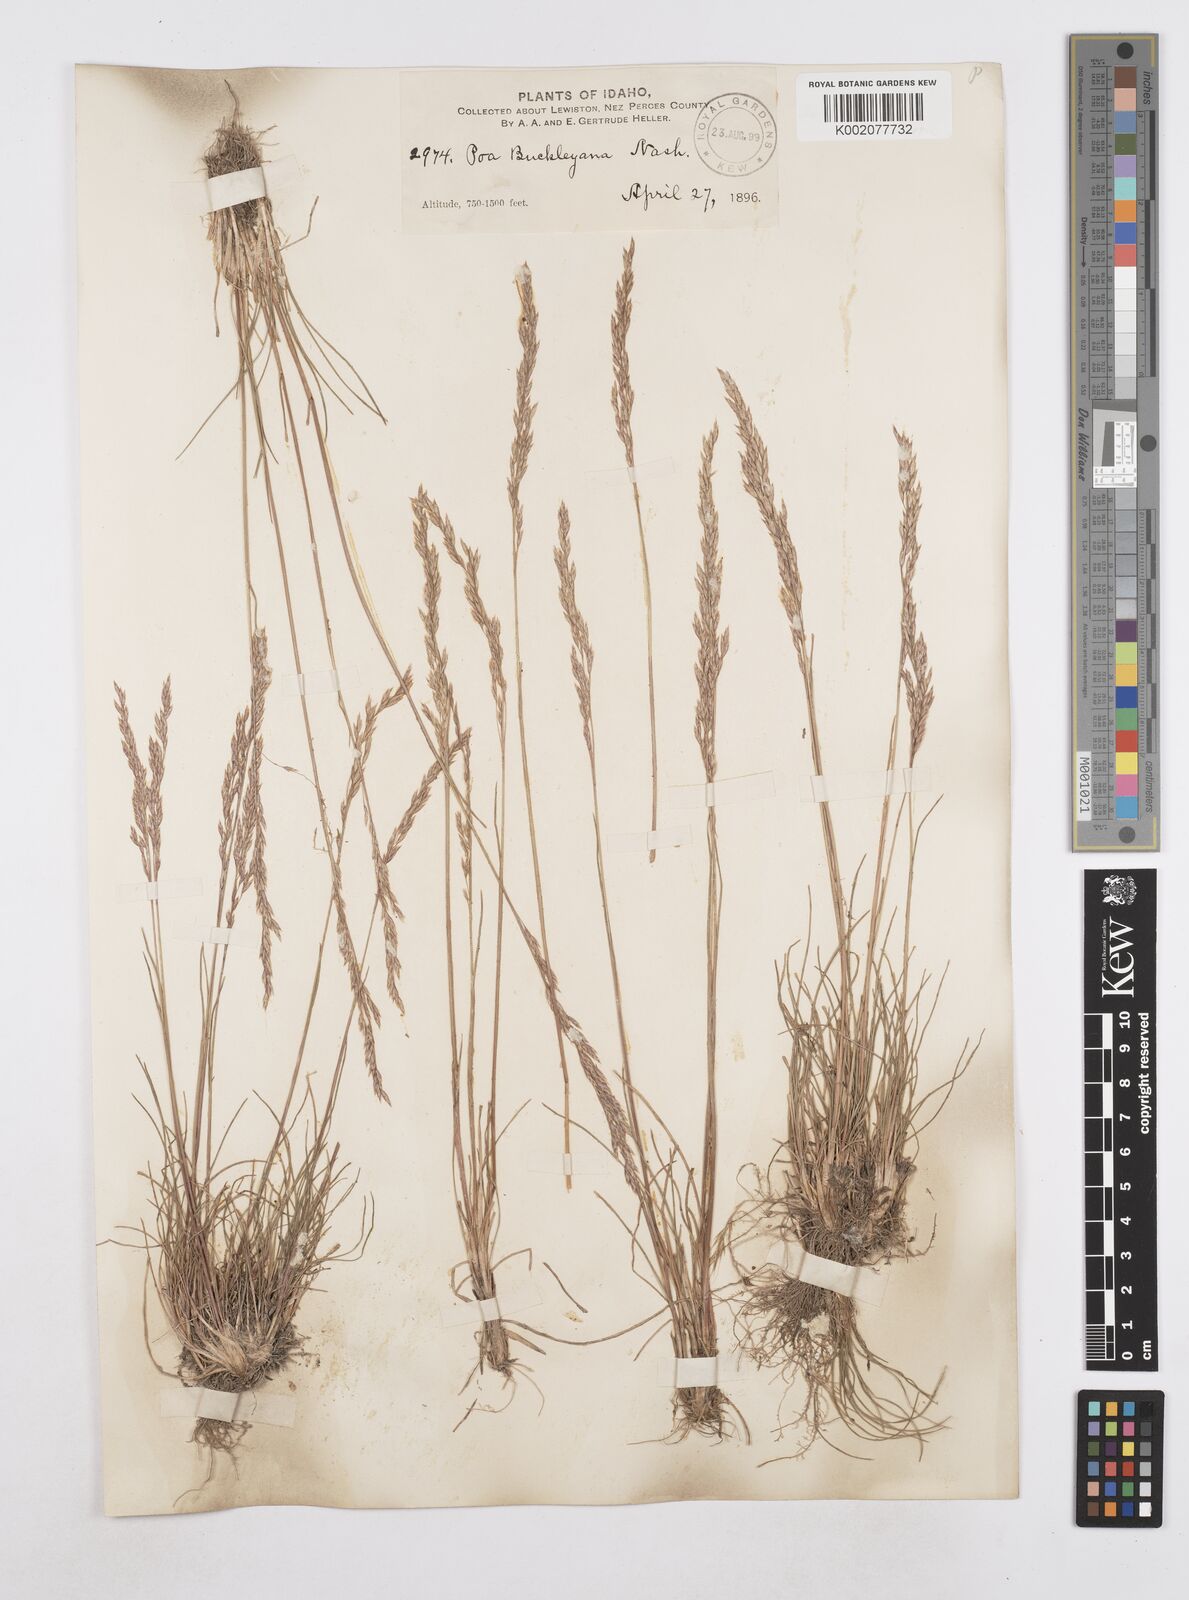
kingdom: Plantae
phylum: Tracheophyta
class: Liliopsida
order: Poales
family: Poaceae
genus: Poa
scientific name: Poa secunda
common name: Sandberg bluegrass
